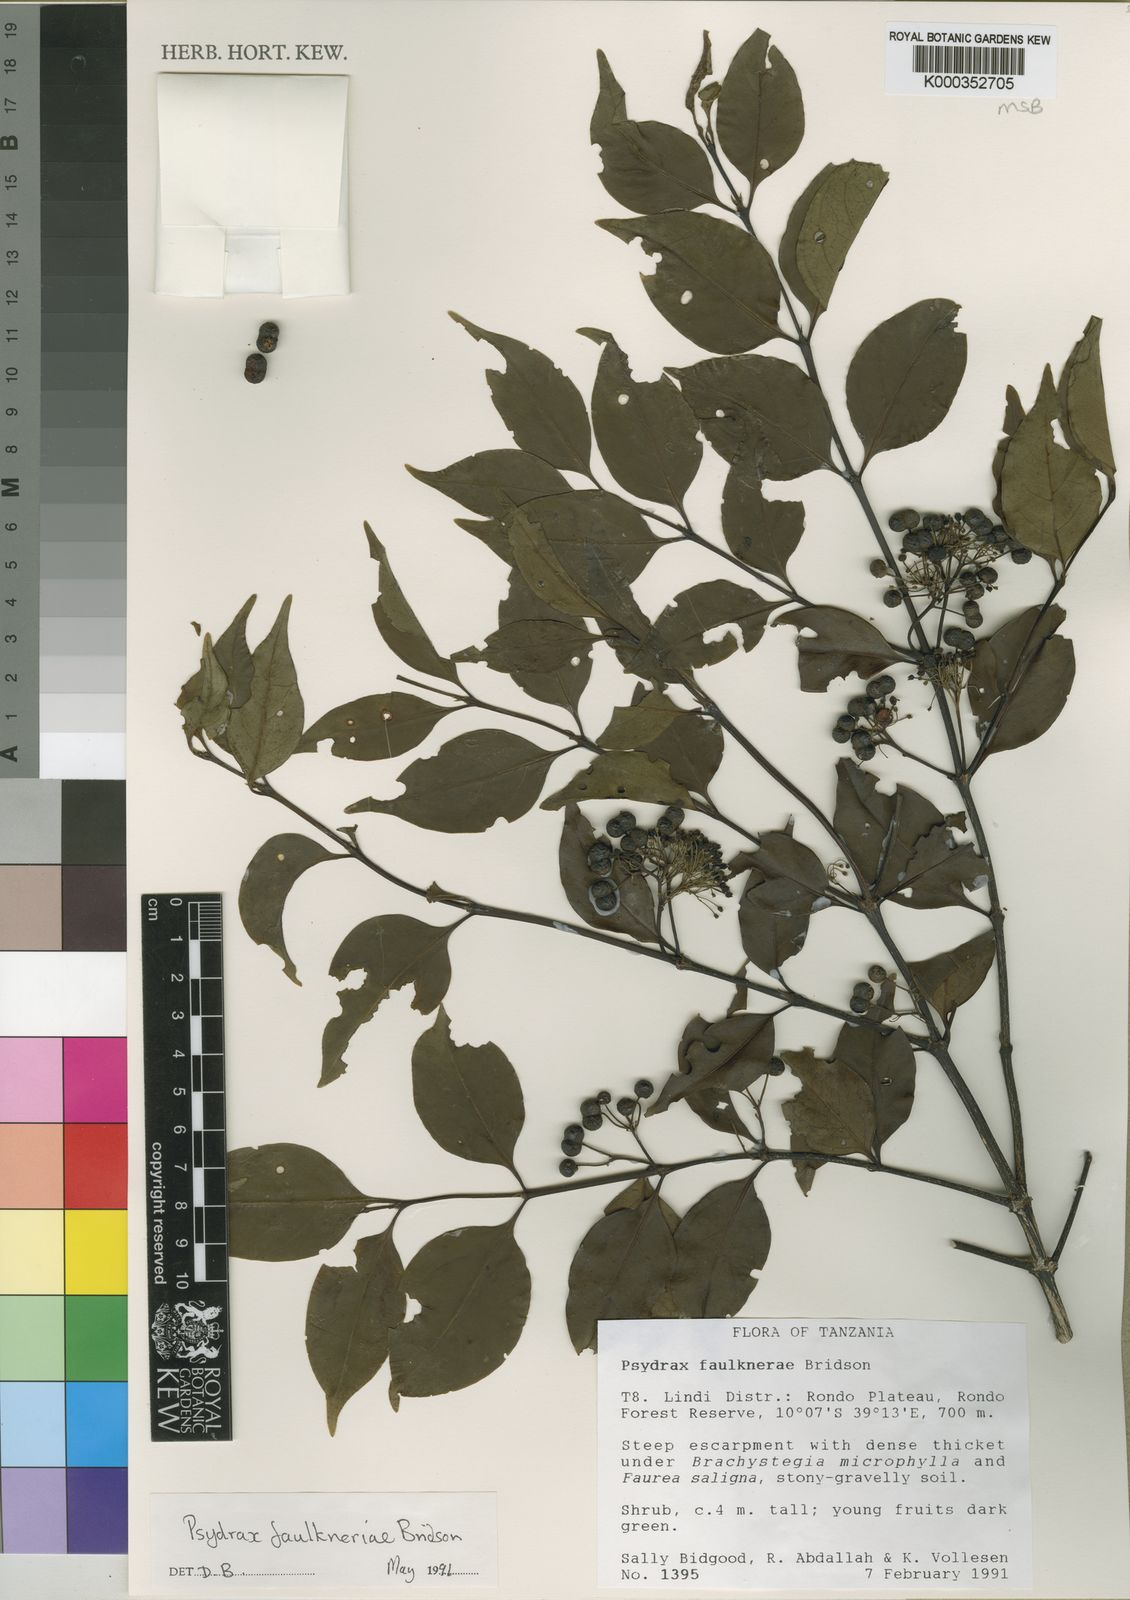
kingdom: Plantae
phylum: Tracheophyta
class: Magnoliopsida
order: Gentianales
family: Rubiaceae
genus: Psydrax
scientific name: Psydrax faulknerae
